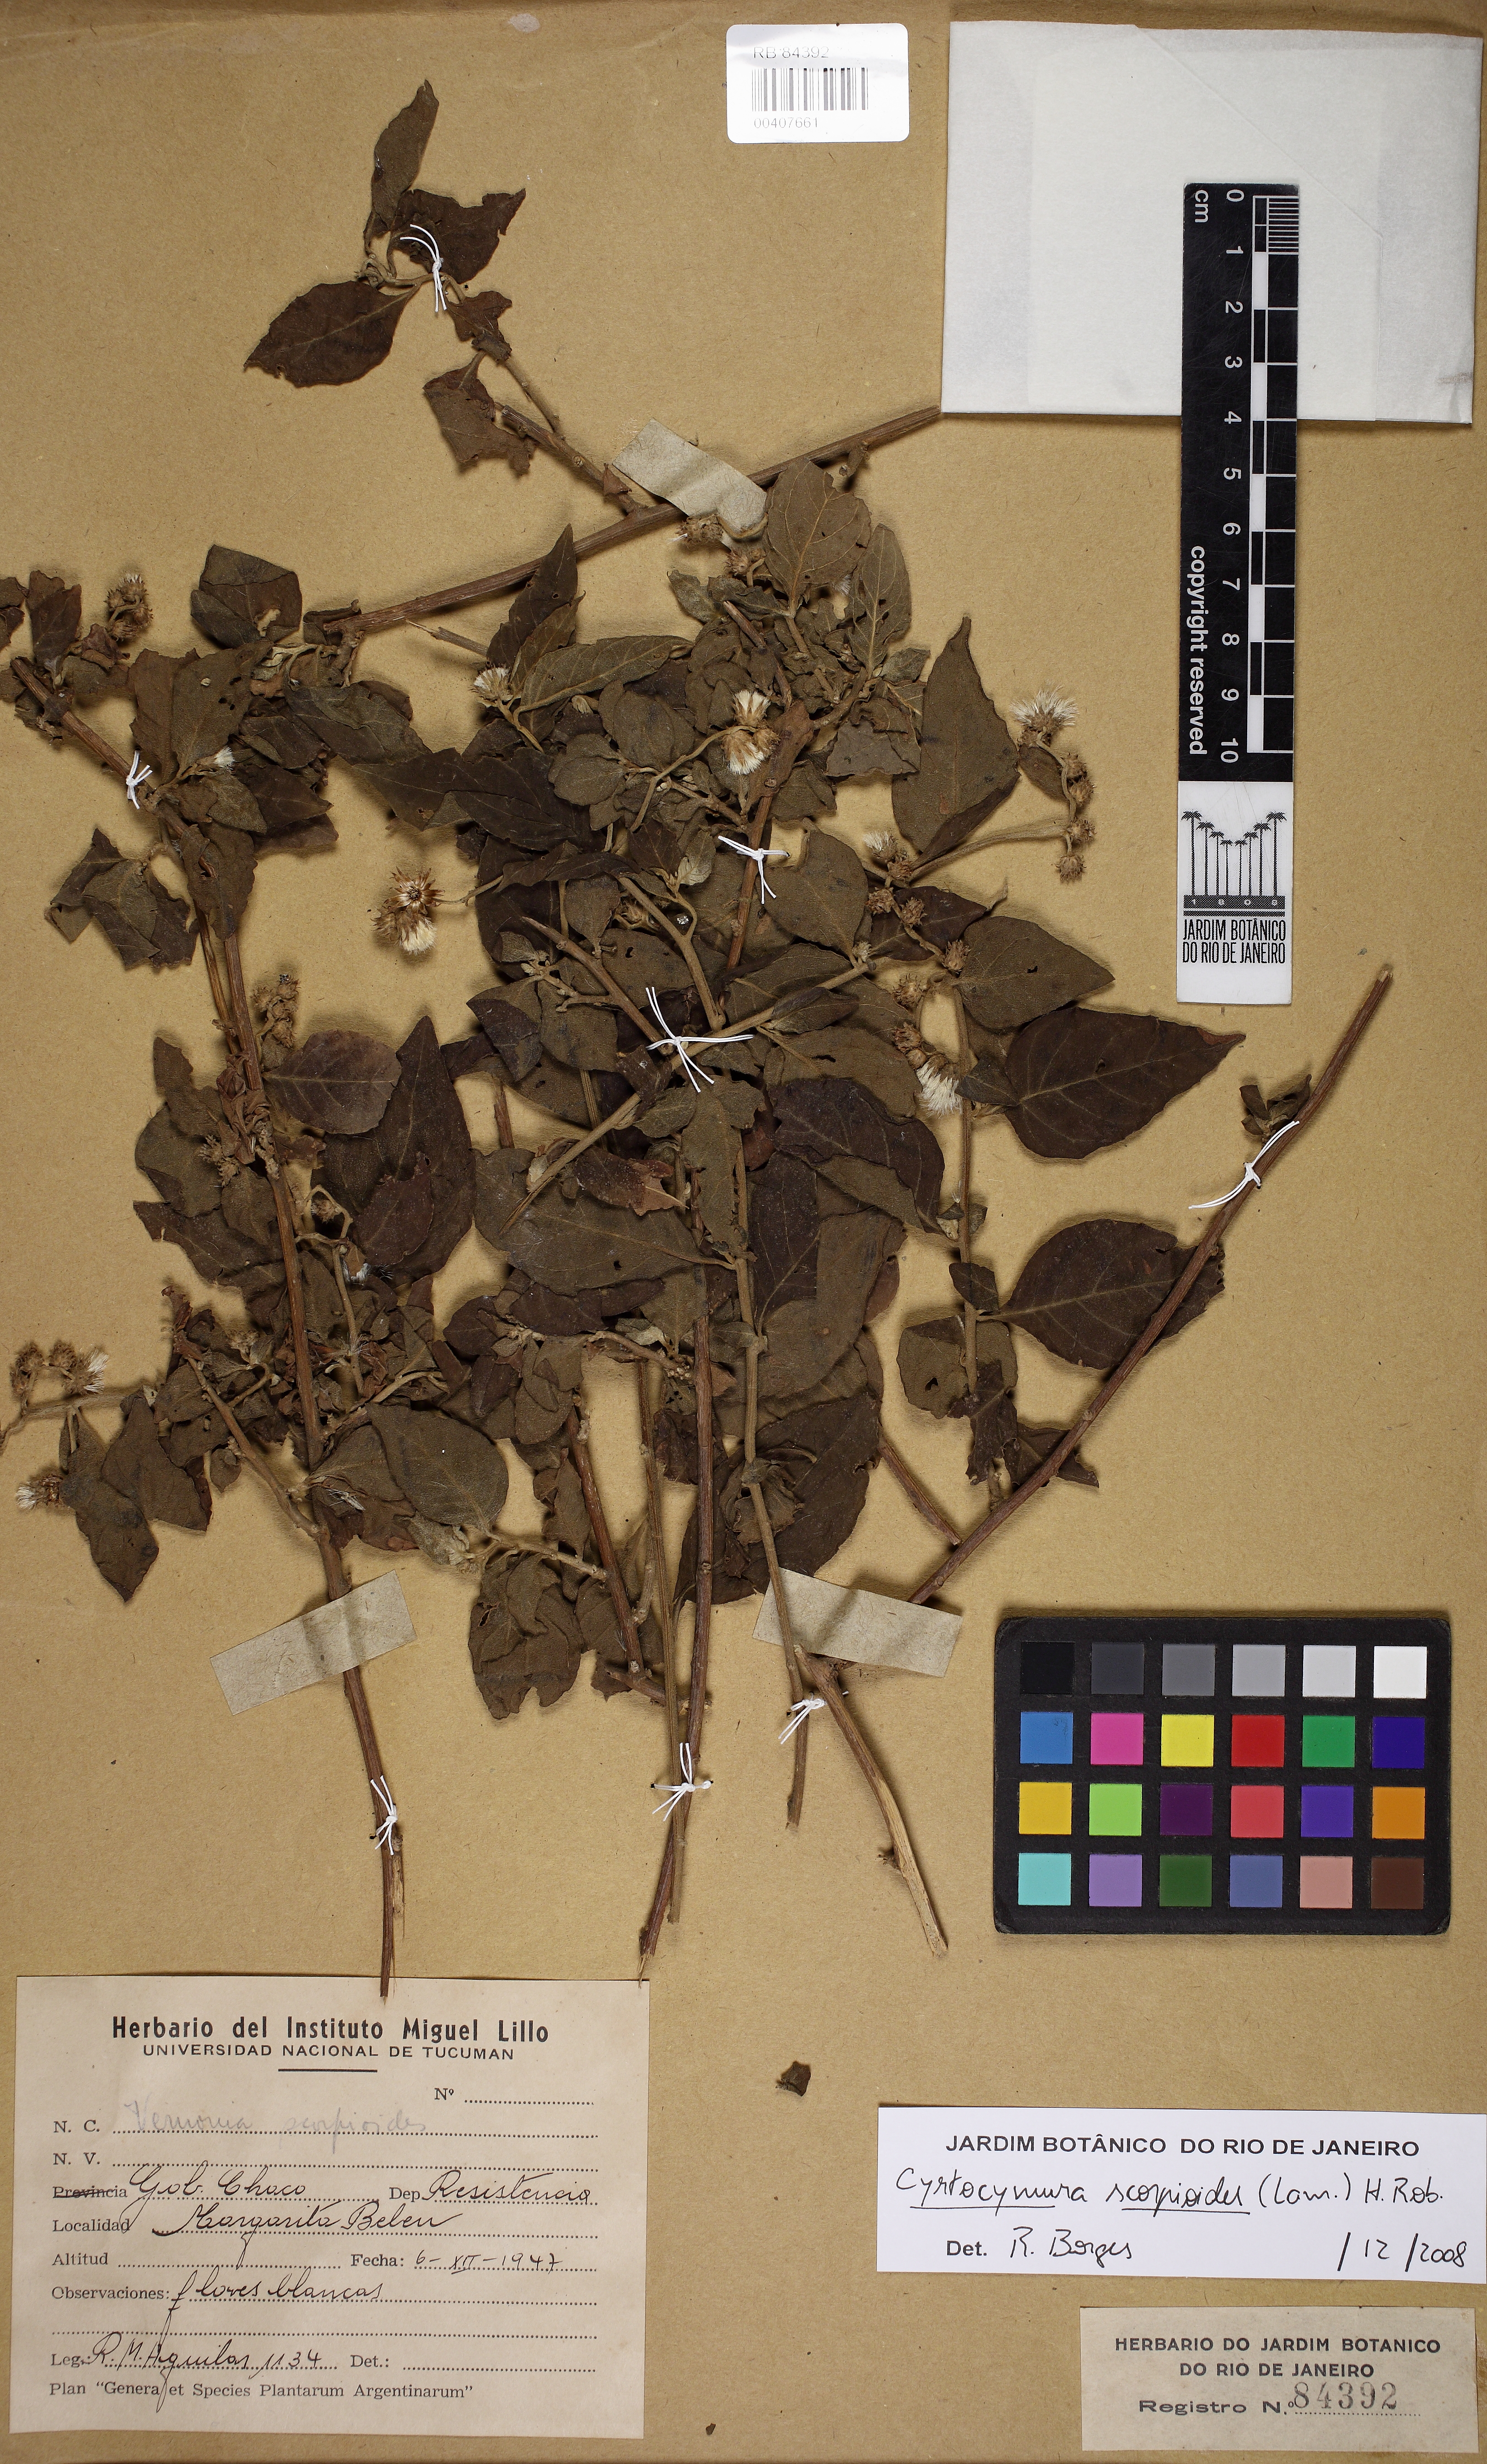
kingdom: Plantae
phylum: Tracheophyta
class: Magnoliopsida
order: Asterales
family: Asteraceae
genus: Cyrtocymura
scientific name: Cyrtocymura scorpioides
